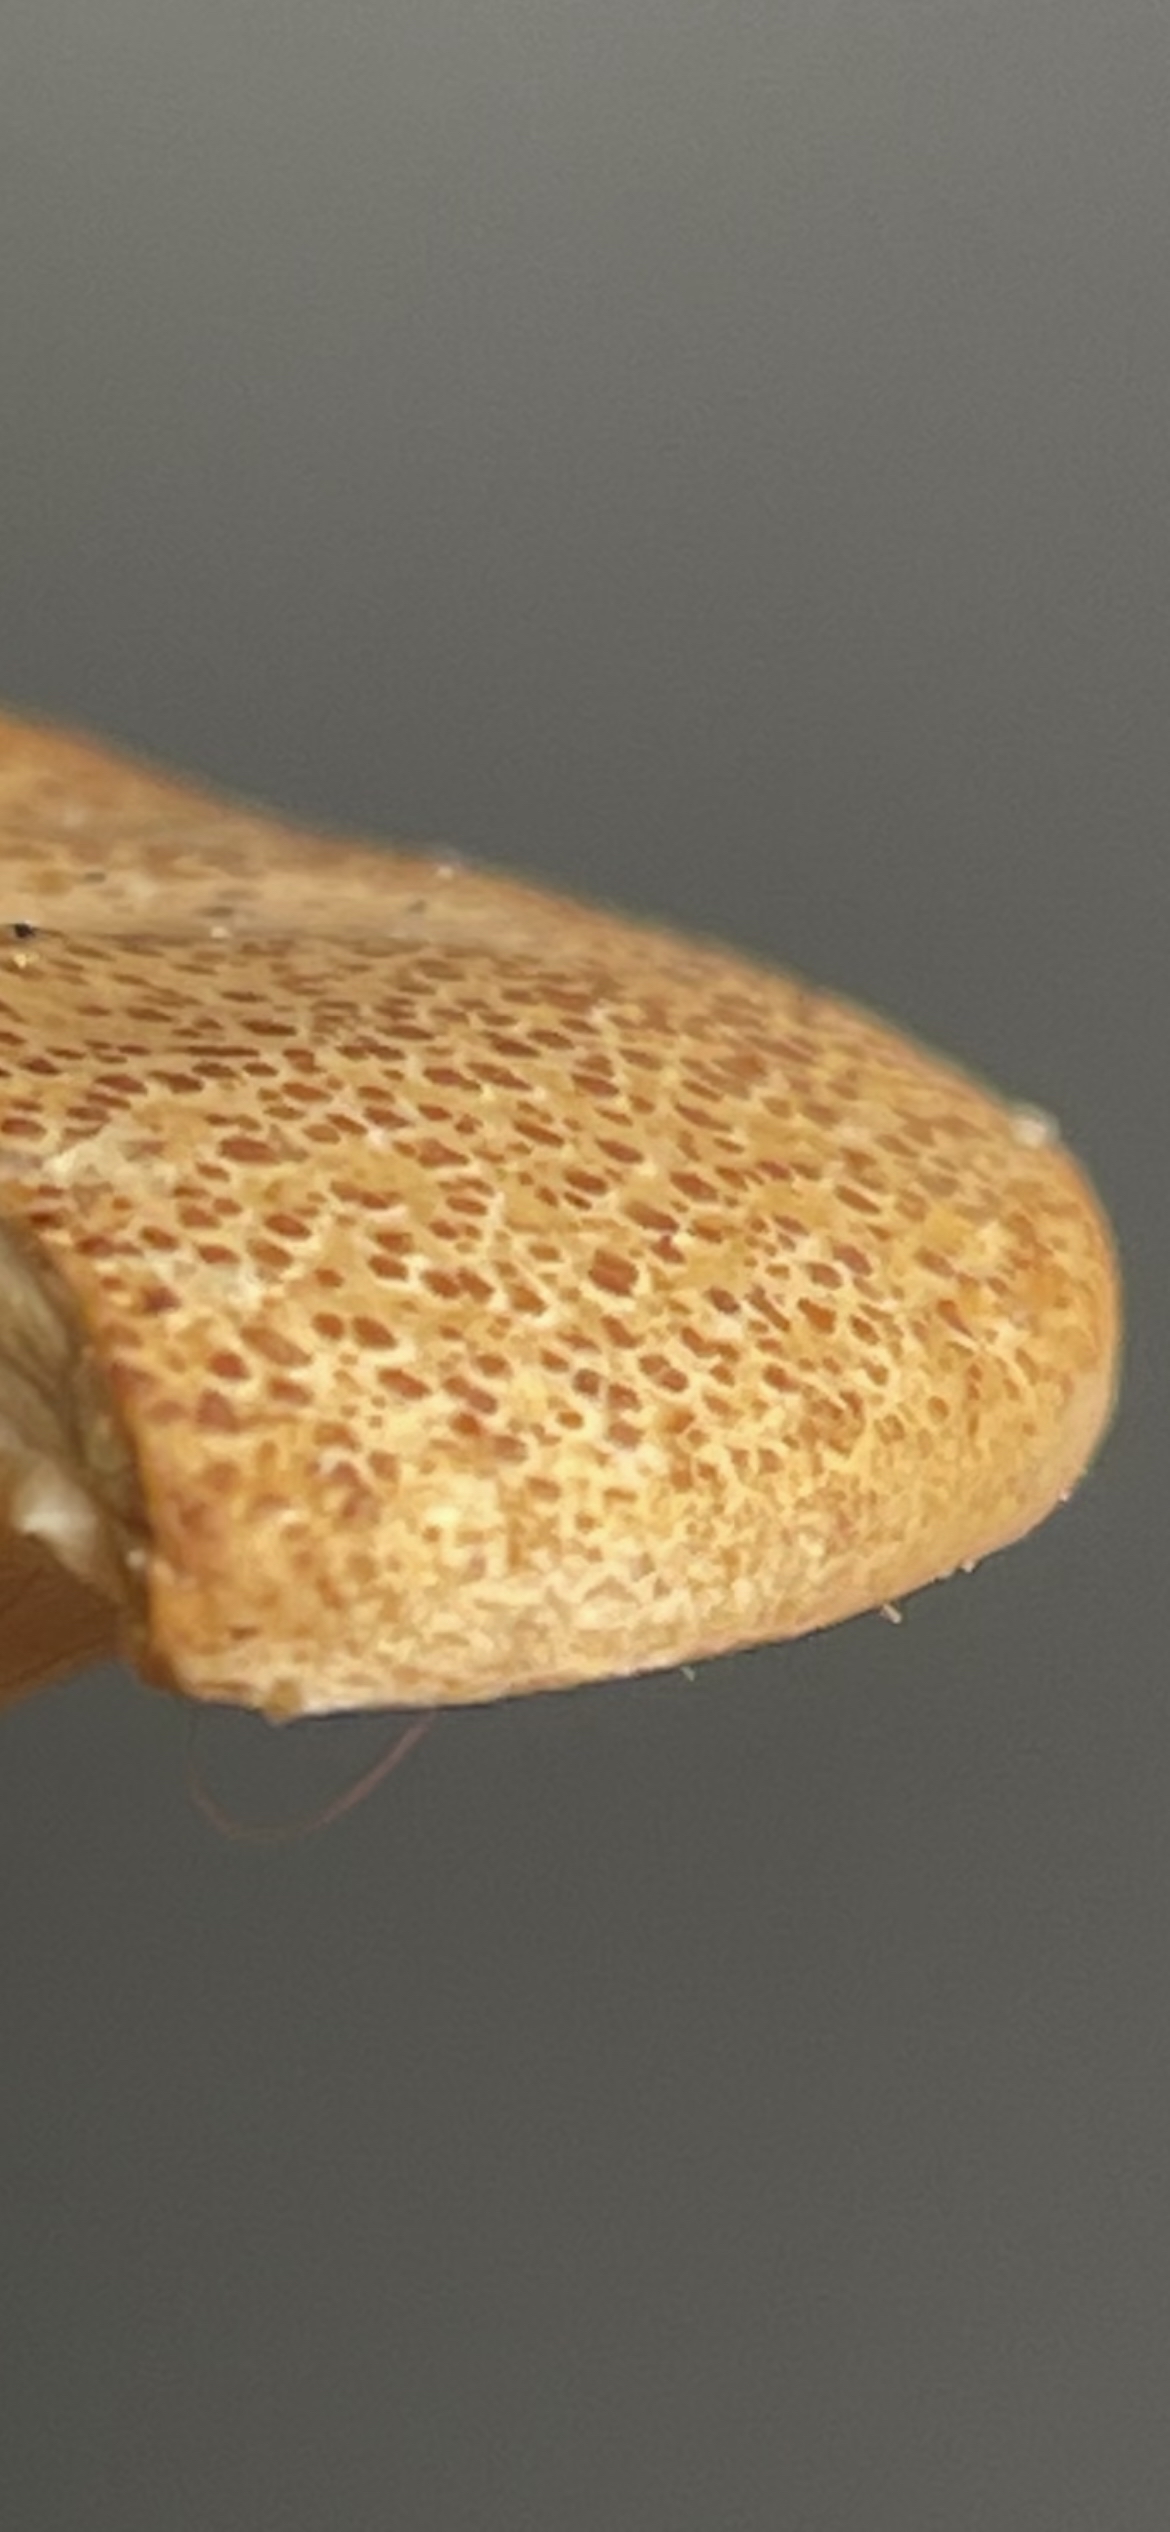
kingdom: Fungi
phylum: Basidiomycota
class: Agaricomycetes
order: Agaricales
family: Tricholomataceae
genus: Paralepista
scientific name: Paralepista gilva
